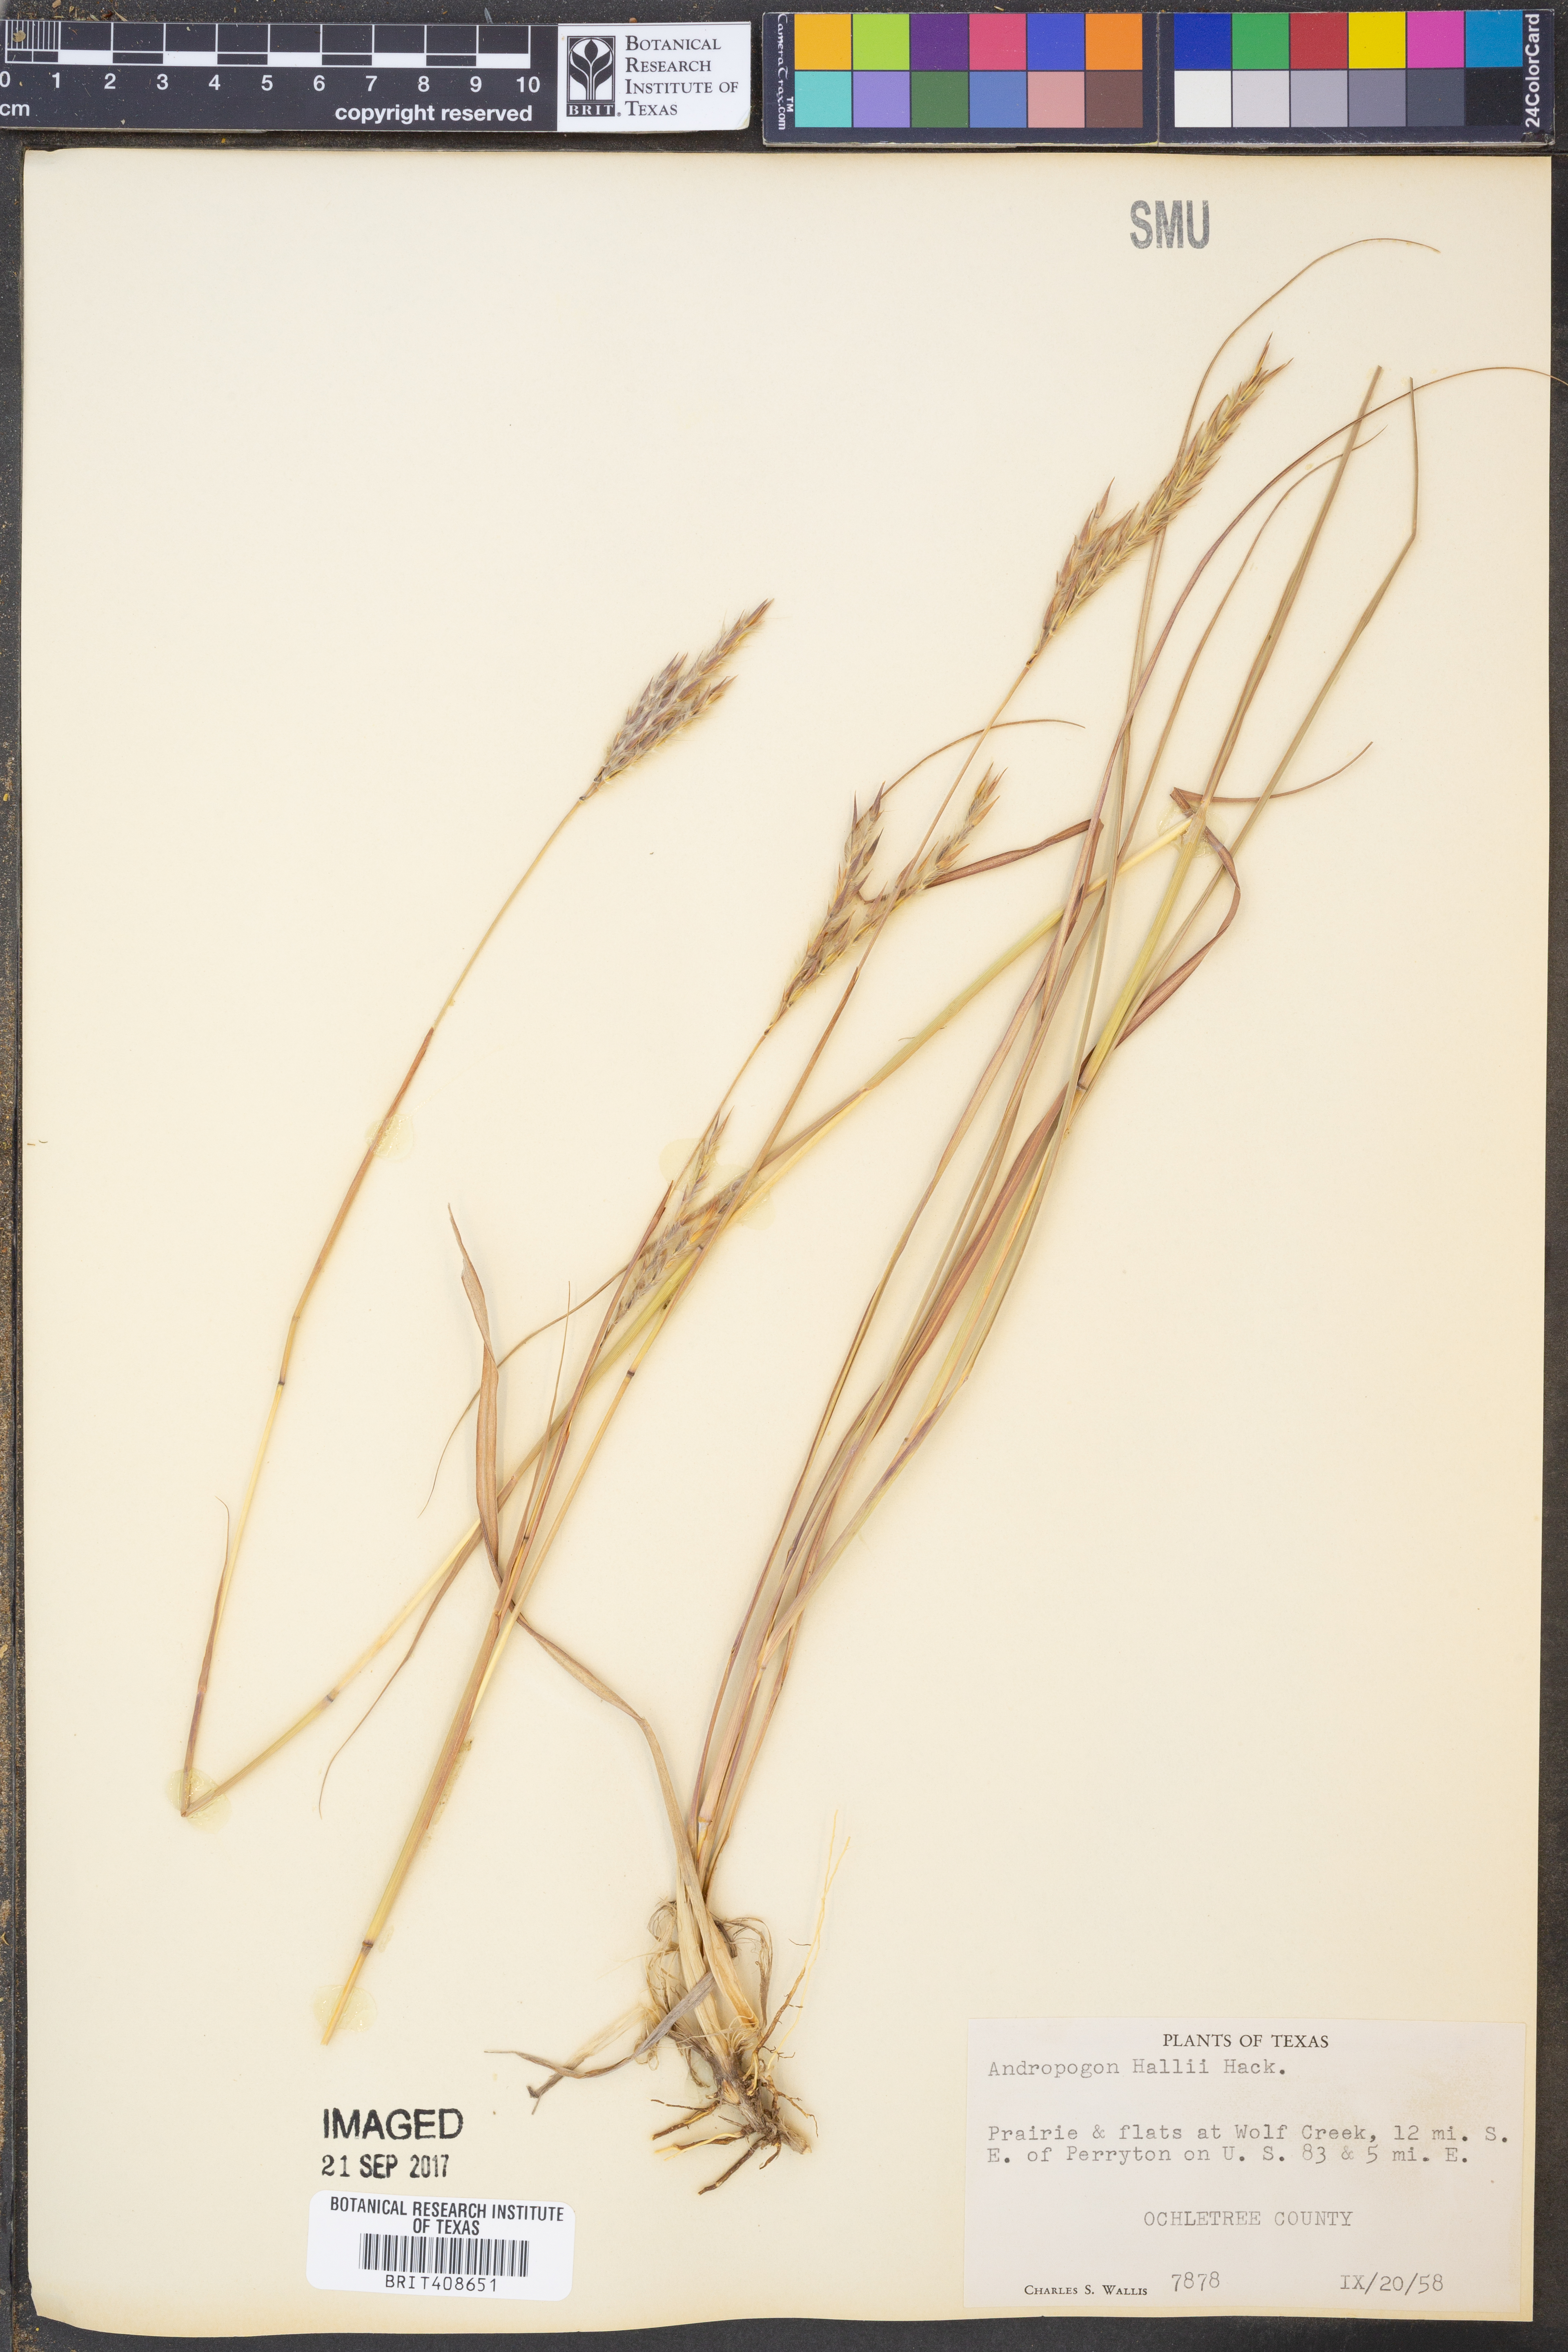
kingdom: Plantae
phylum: Tracheophyta
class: Liliopsida
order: Poales
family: Poaceae
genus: Andropogon
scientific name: Andropogon hallii
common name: Sand bluestem
